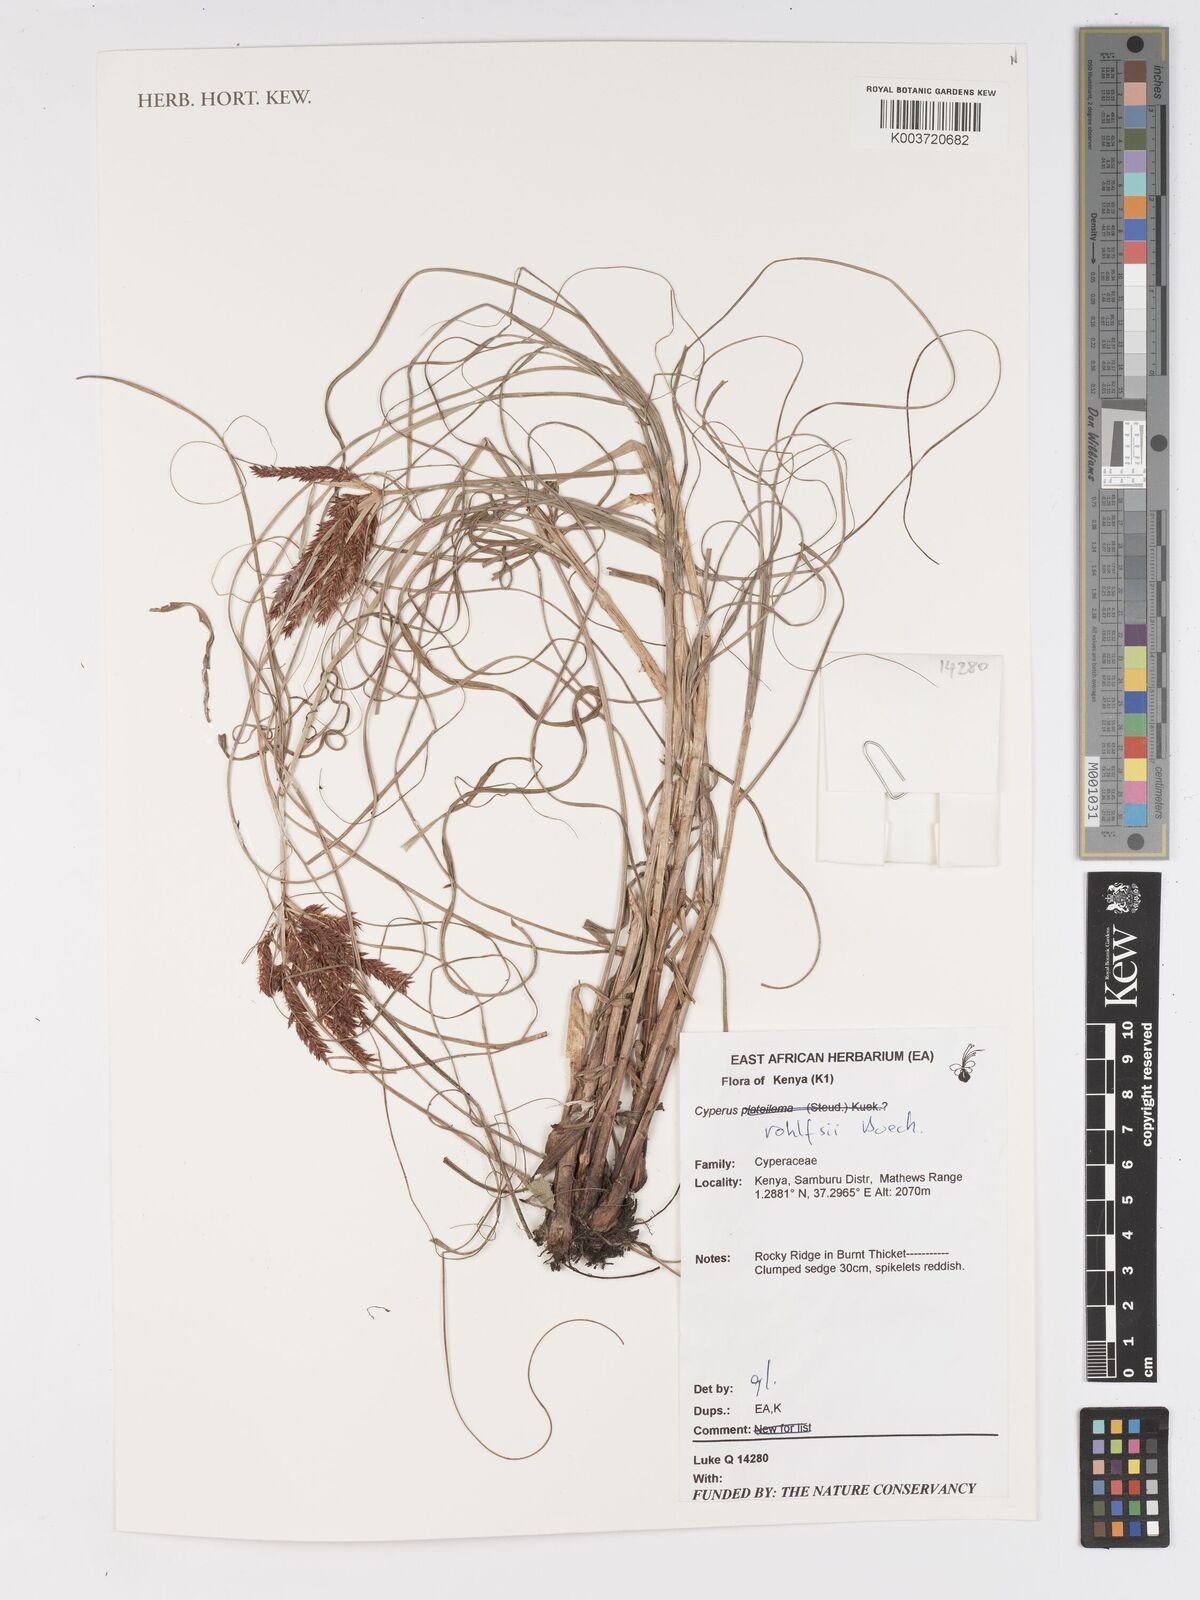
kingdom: Plantae
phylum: Tracheophyta
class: Liliopsida
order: Poales
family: Cyperaceae
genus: Cyperus
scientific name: Cyperus rohlfsii
